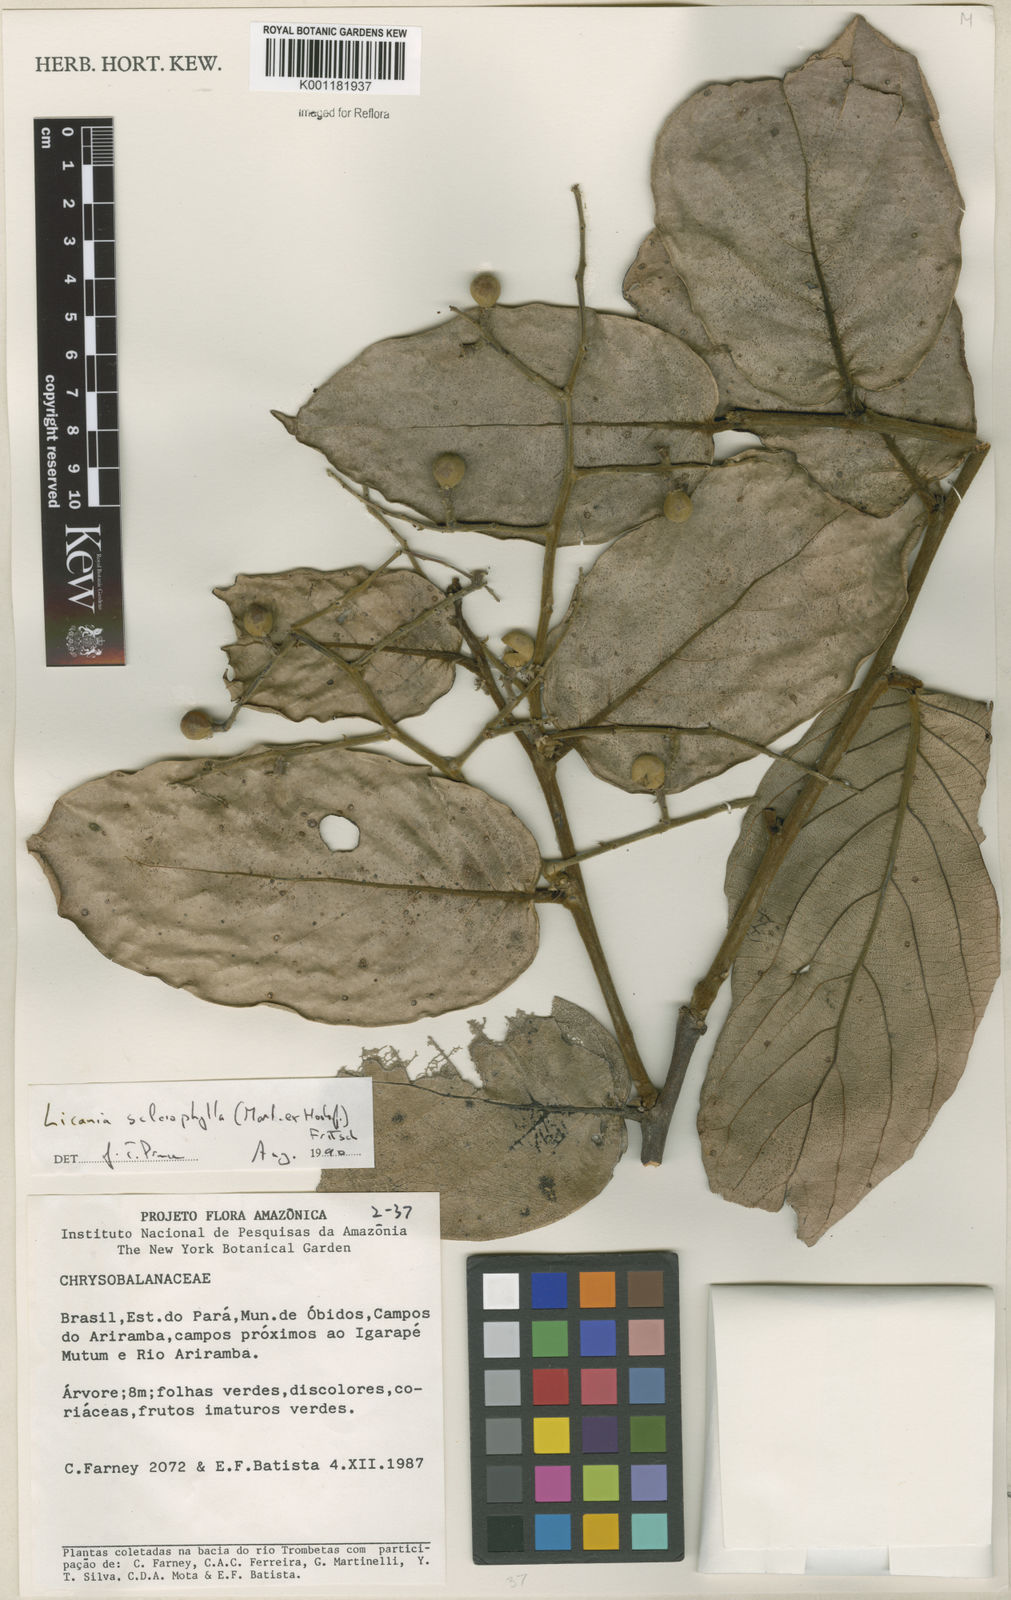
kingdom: Plantae
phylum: Tracheophyta
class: Magnoliopsida
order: Malpighiales
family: Chrysobalanaceae
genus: Leptobalanus
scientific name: Leptobalanus sclerophyllus
